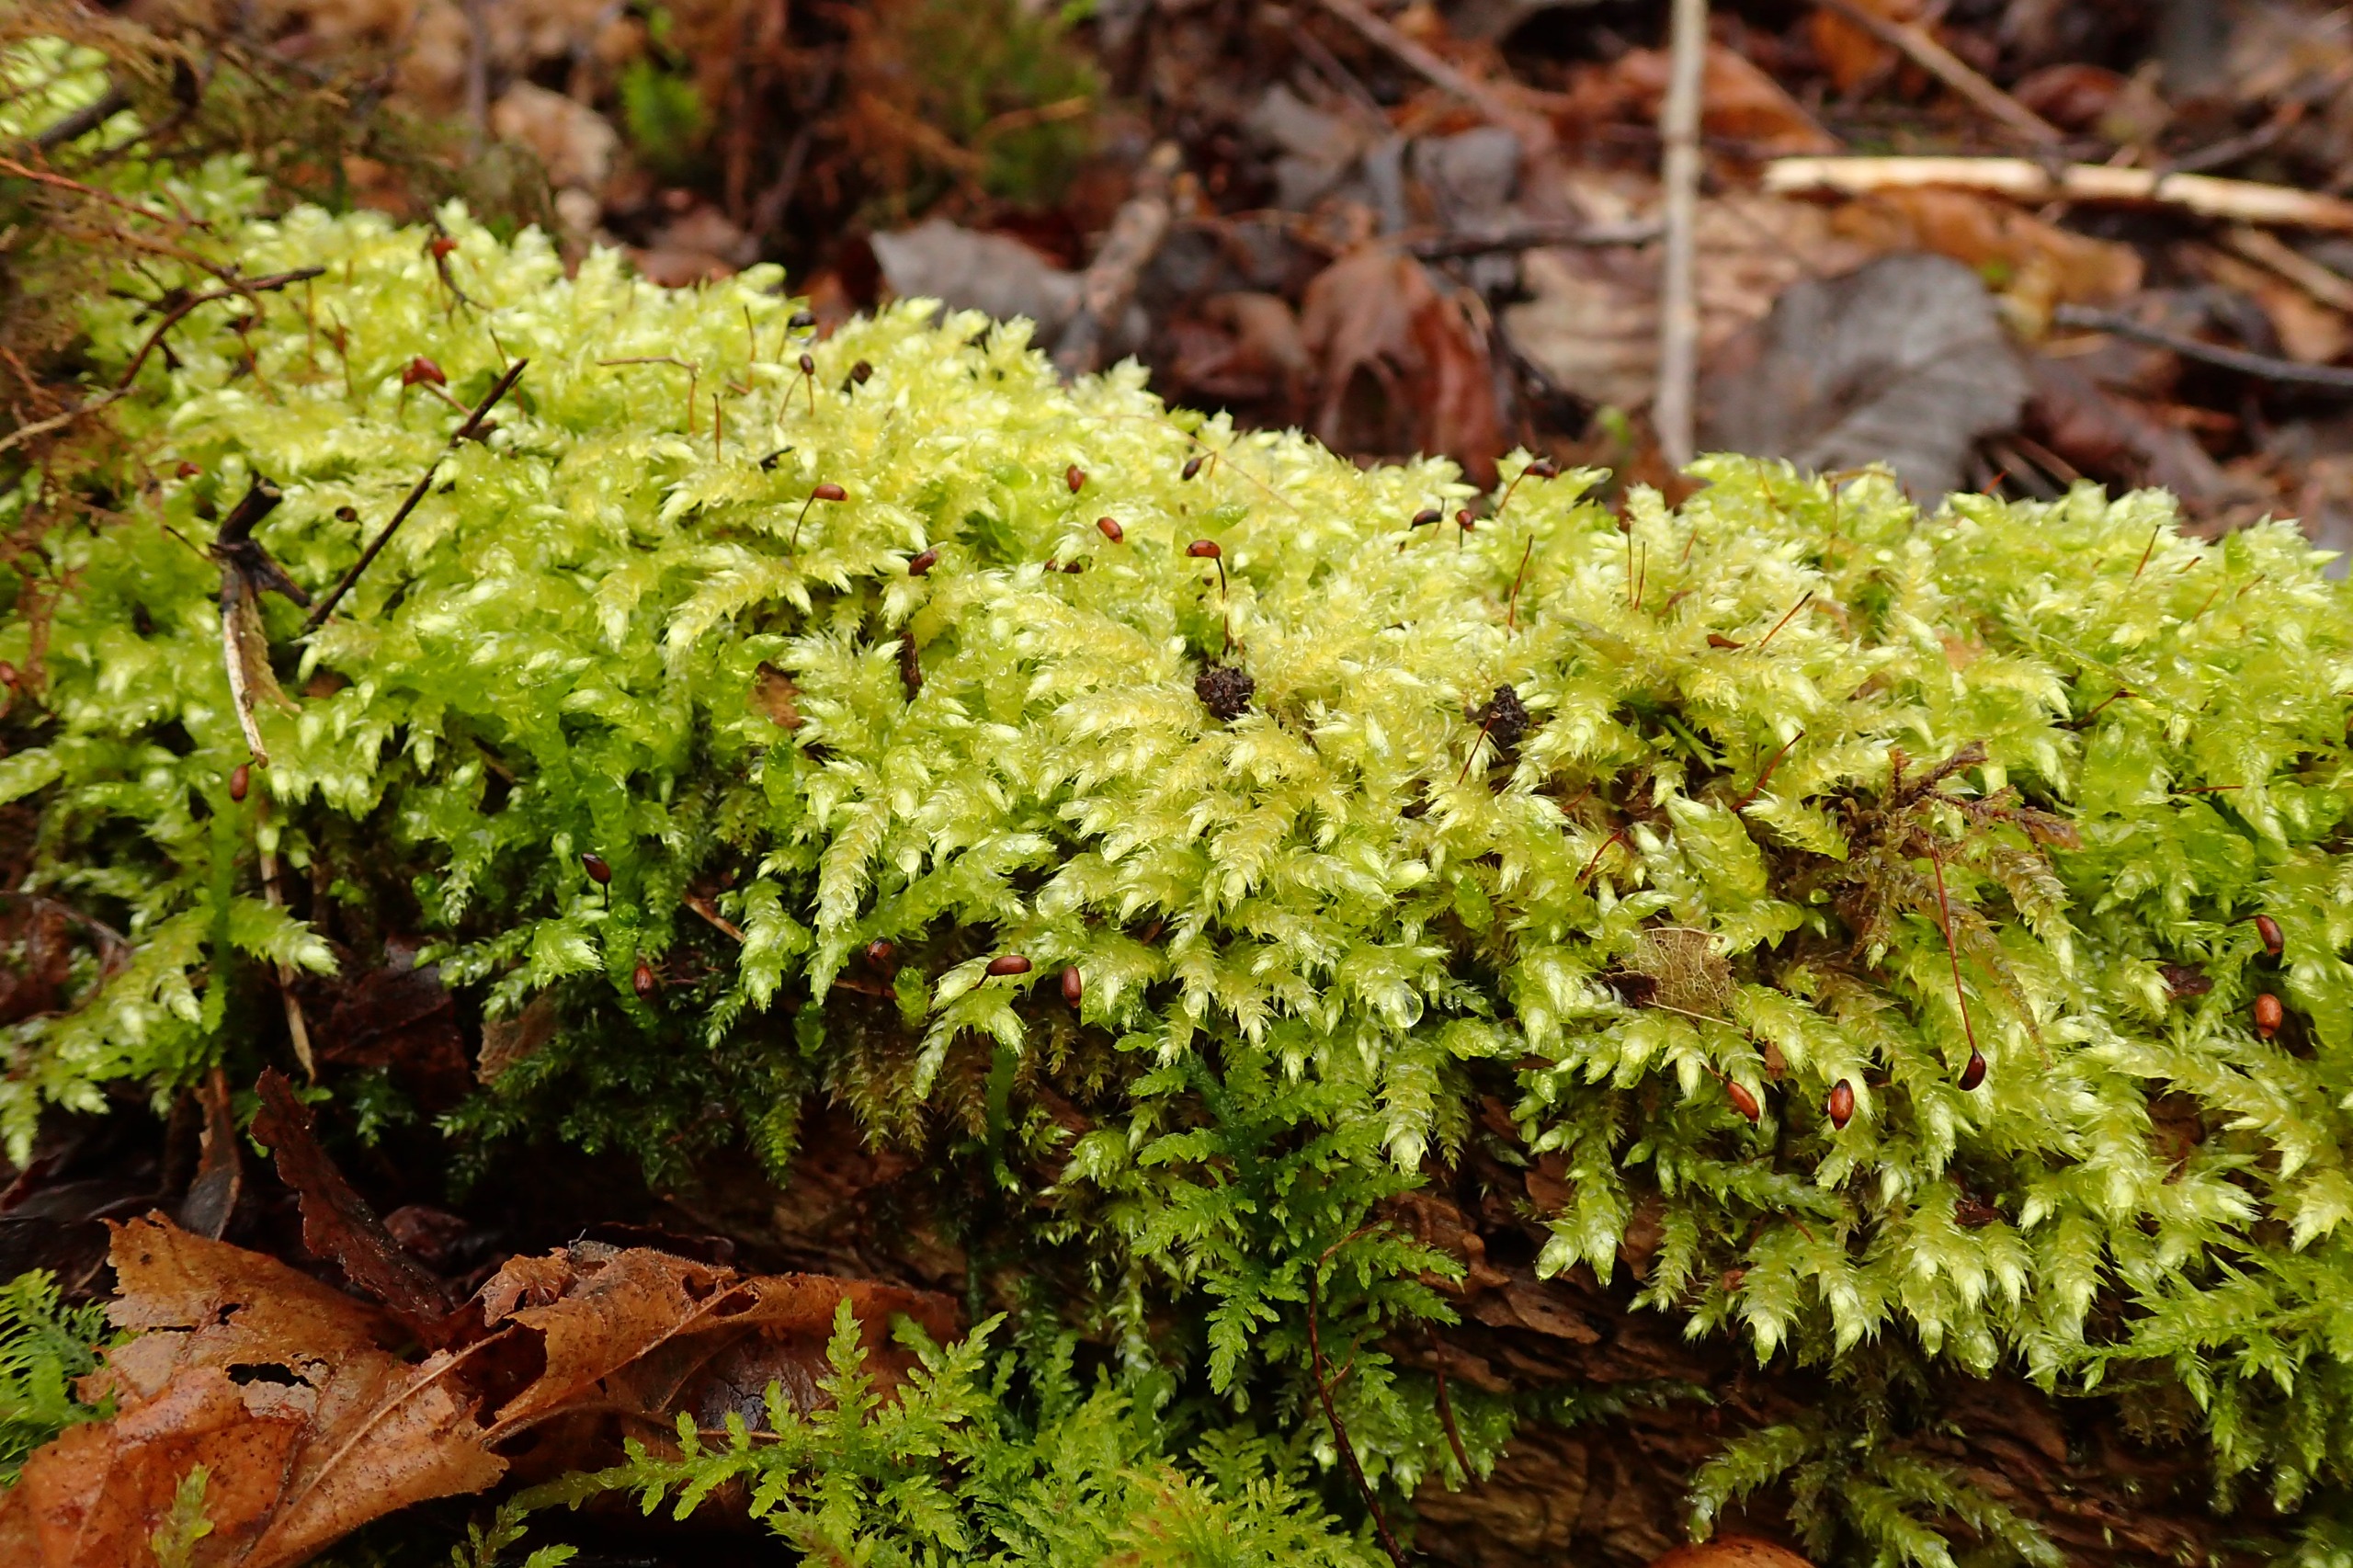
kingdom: Plantae
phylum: Bryophyta
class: Bryopsida
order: Hypnales
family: Brachytheciaceae
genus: Brachythecium
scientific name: Brachythecium rutabulum
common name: Almindelig kortkapsel
